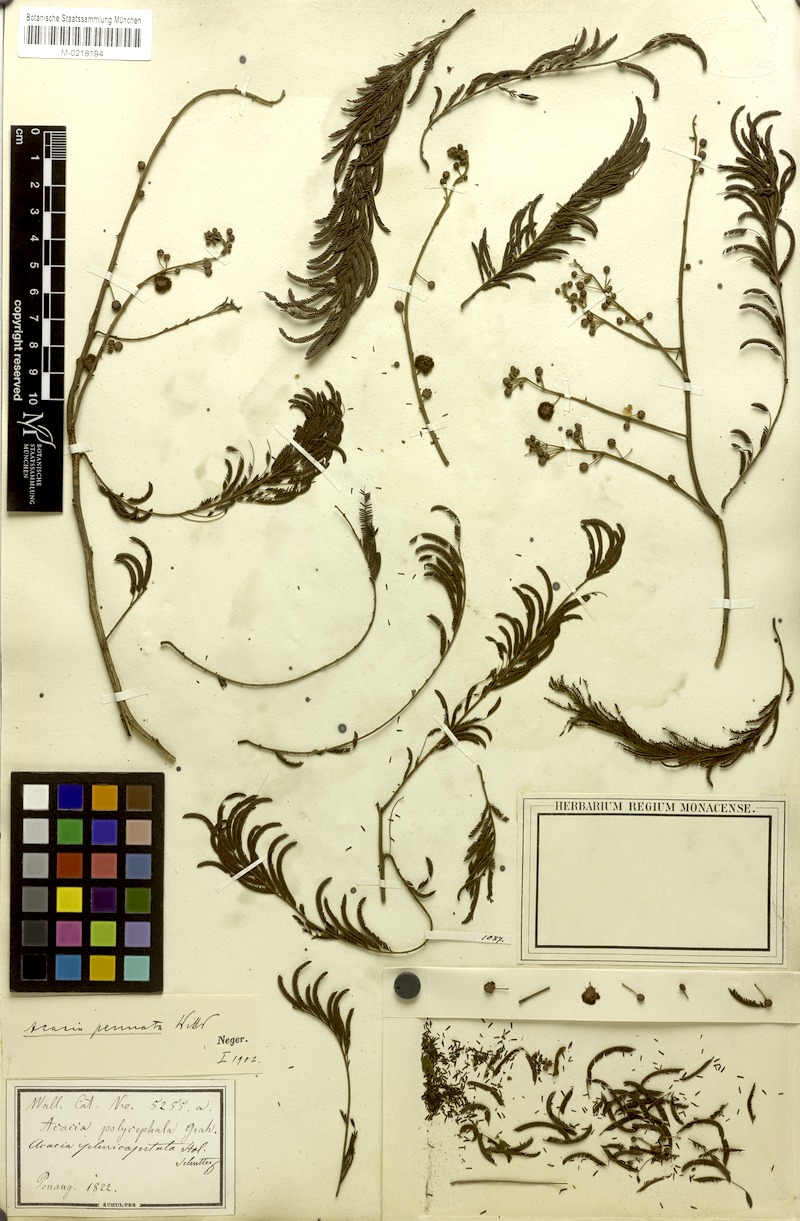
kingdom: Plantae
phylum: Tracheophyta
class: Magnoliopsida
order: Fabales
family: Fabaceae
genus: Senegalia
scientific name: Senegalia pennata
